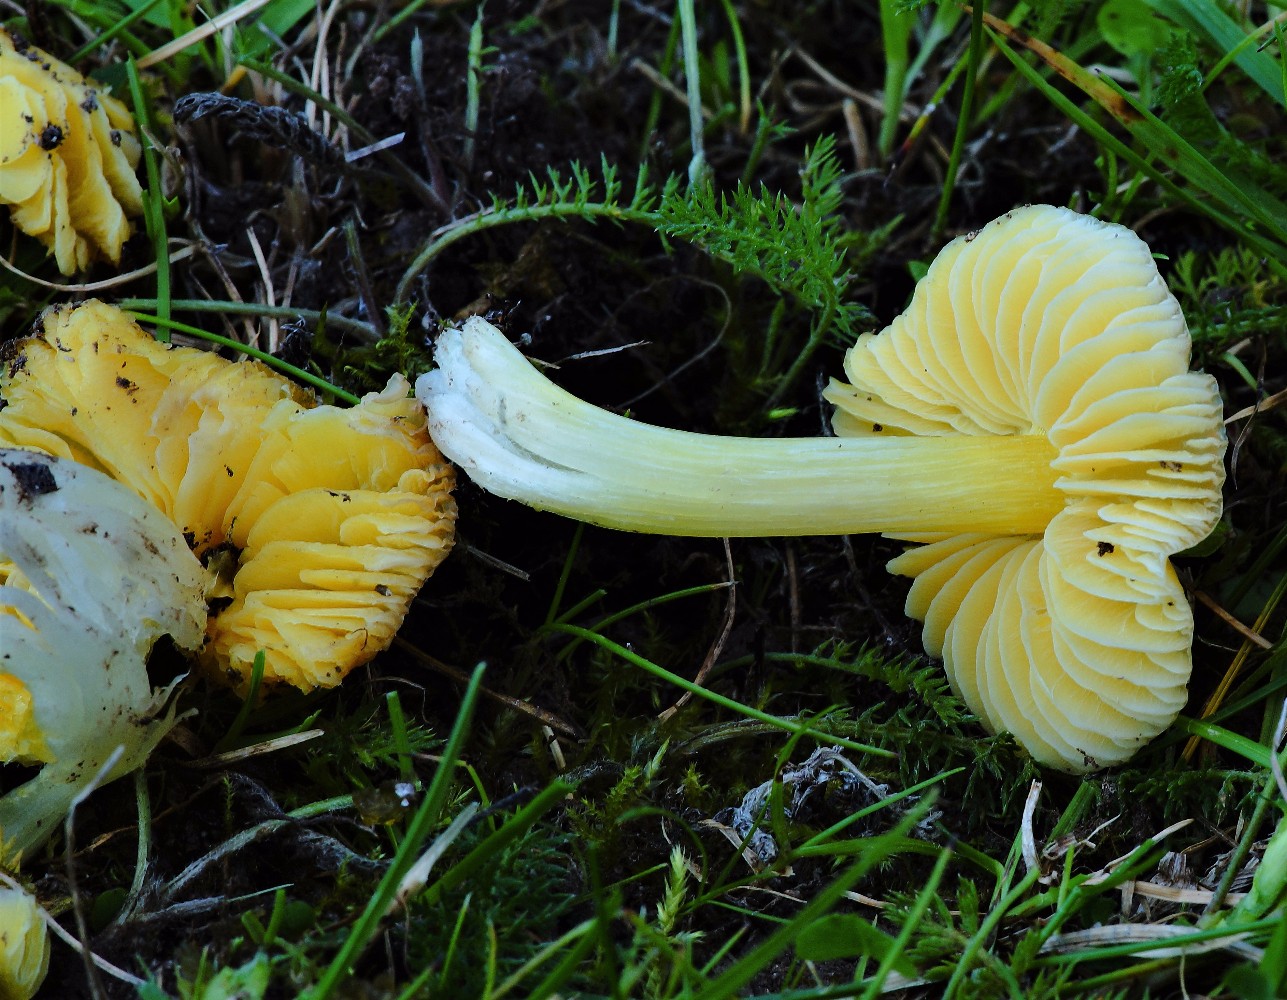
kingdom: Fungi
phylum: Basidiomycota
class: Agaricomycetes
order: Agaricales
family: Hygrophoraceae
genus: Hygrocybe
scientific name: Hygrocybe
